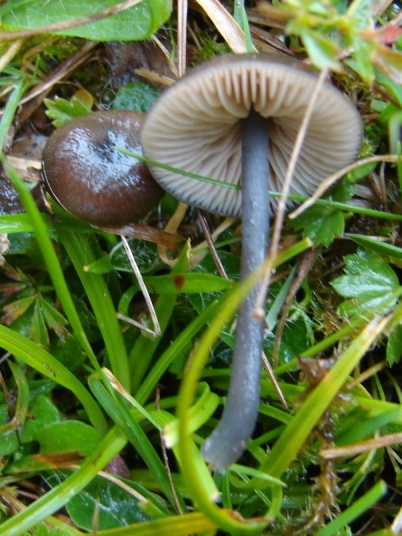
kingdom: Fungi
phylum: Basidiomycota
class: Agaricomycetes
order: Agaricales
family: Entolomataceae
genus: Entoloma
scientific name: Entoloma atrocoeruleum
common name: sortblå rødblad
